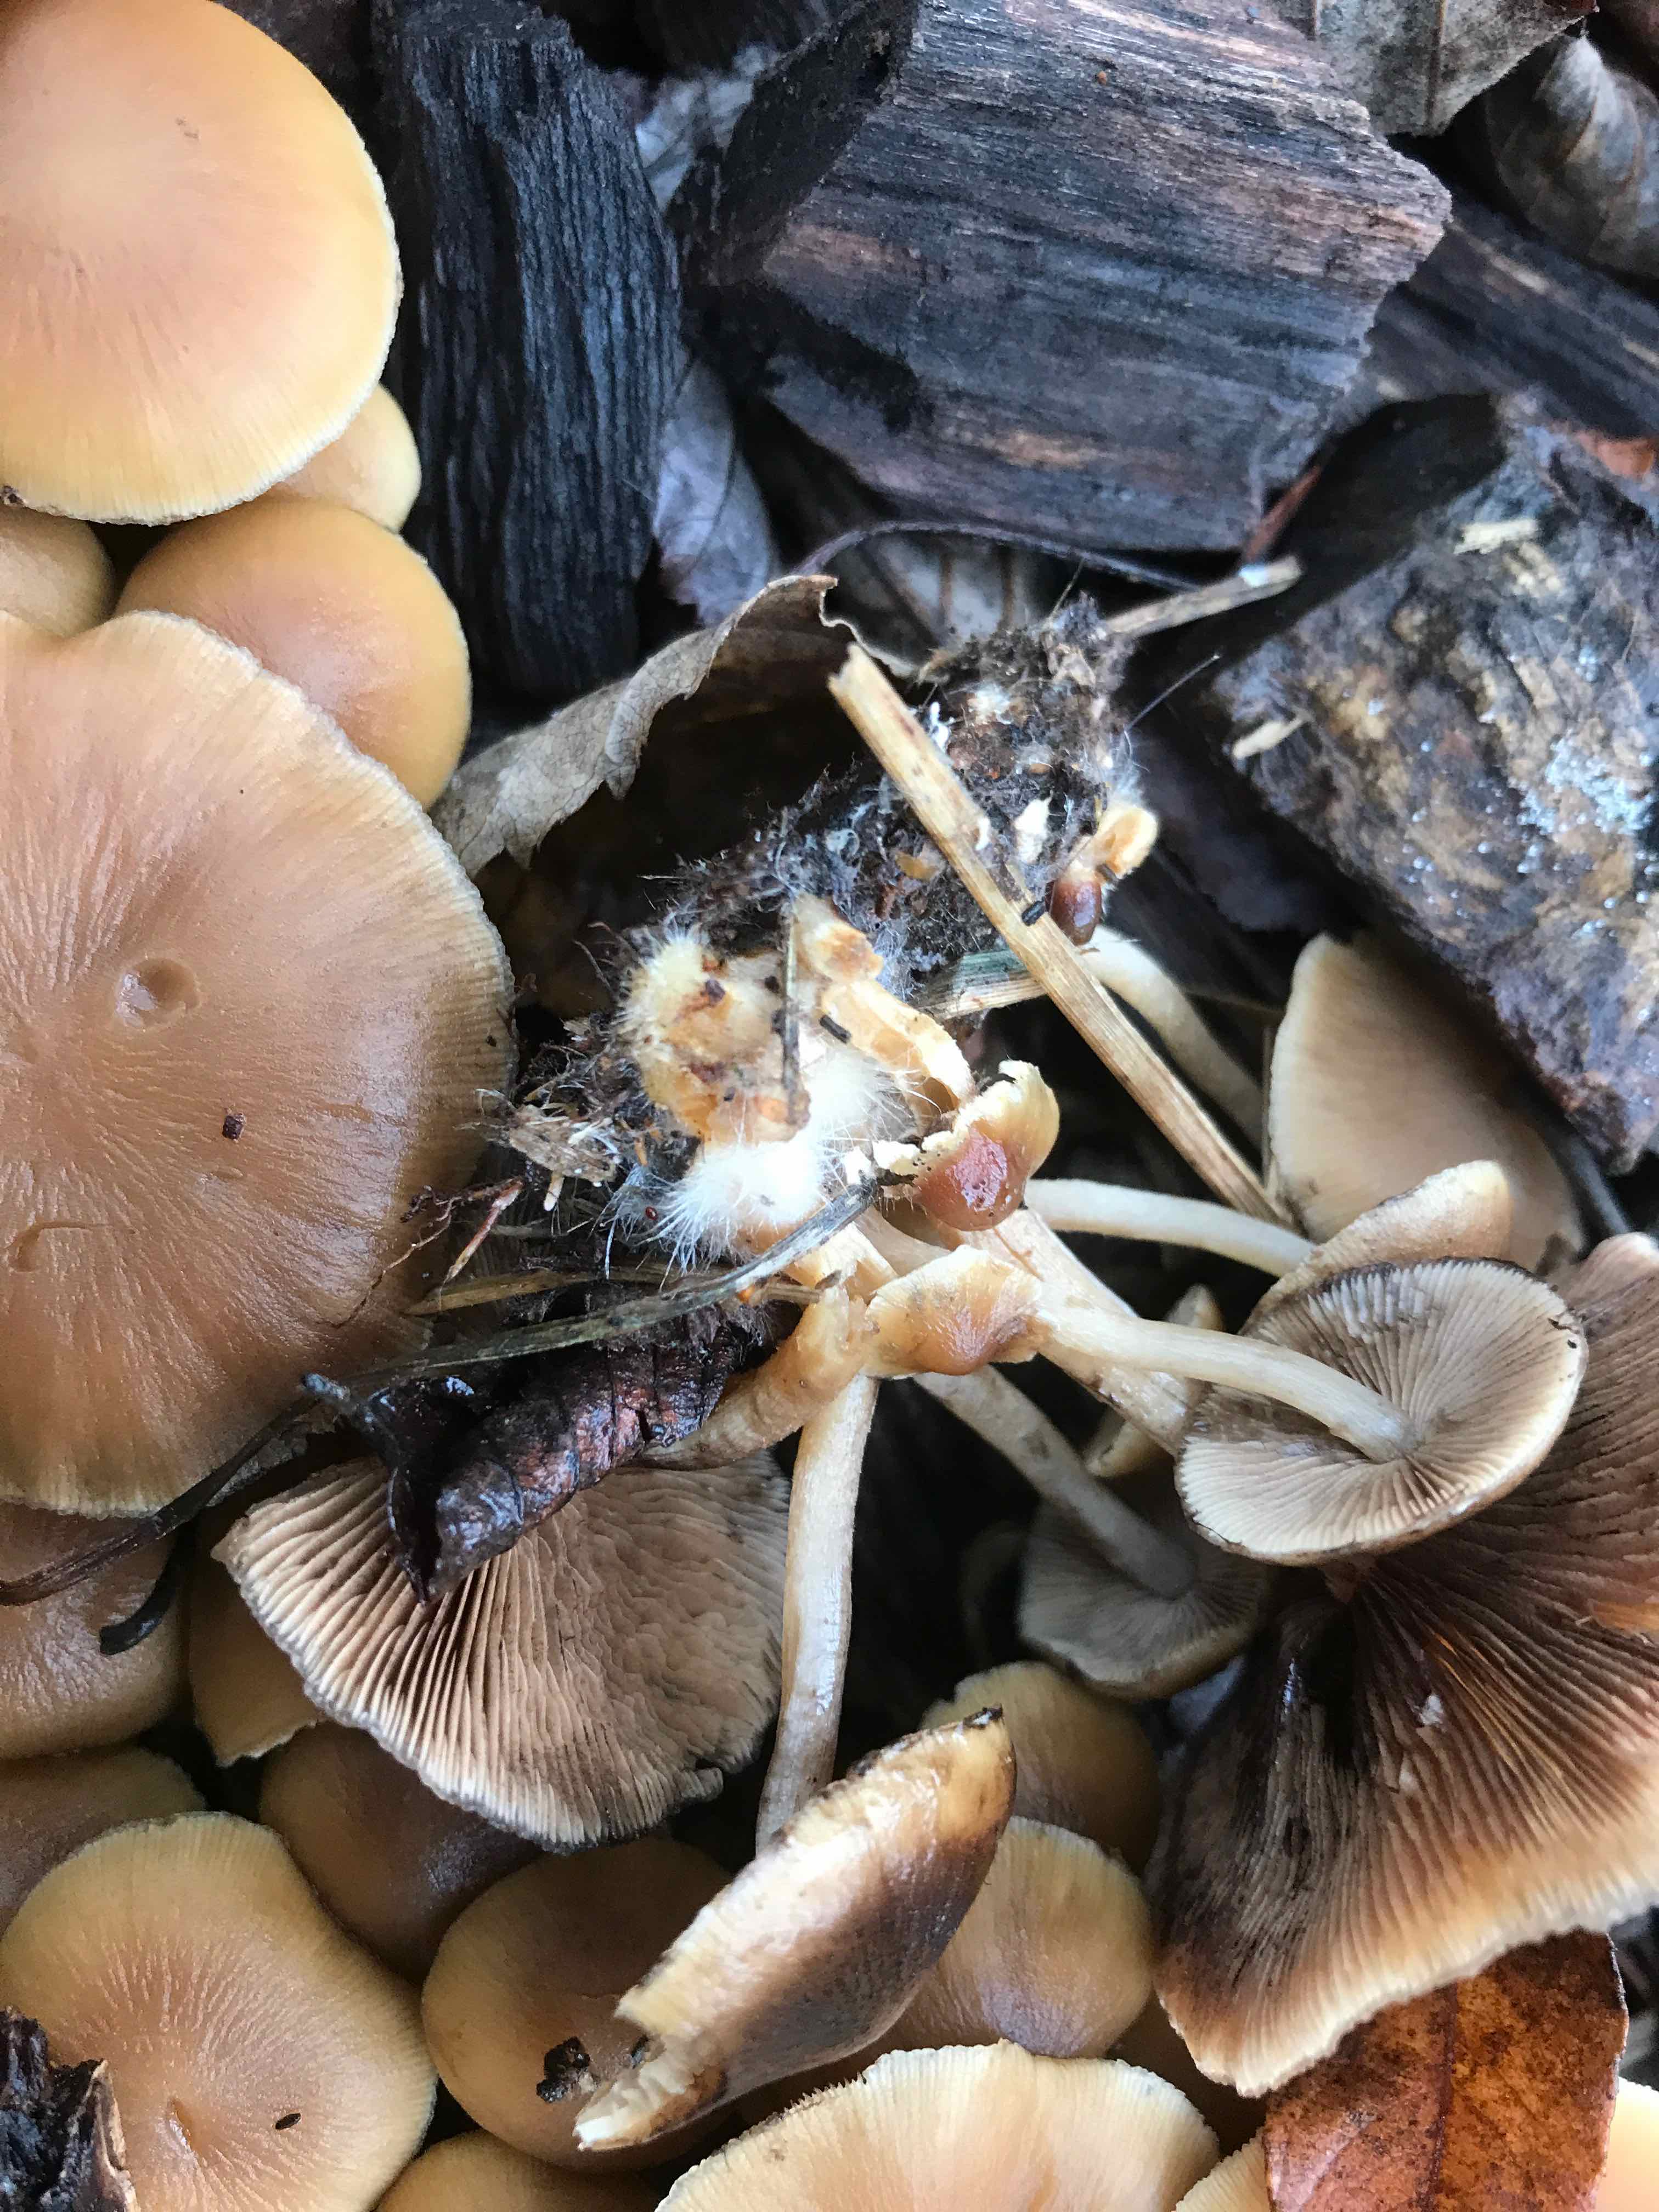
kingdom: Fungi
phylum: Basidiomycota
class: Agaricomycetes
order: Agaricales
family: Psathyrellaceae
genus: Psathyrella
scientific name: Psathyrella piluliformis
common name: lysstokket mørkhat
